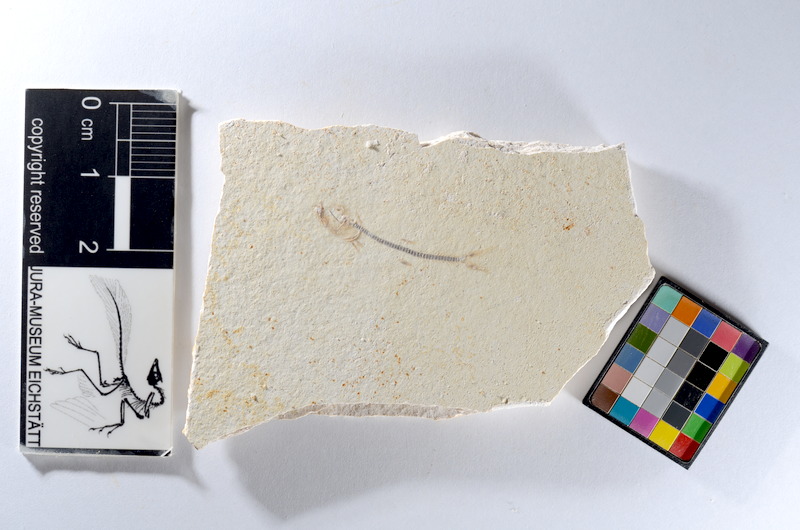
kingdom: Animalia
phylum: Chordata
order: Salmoniformes
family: Orthogonikleithridae
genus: Orthogonikleithrus
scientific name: Orthogonikleithrus hoelli
